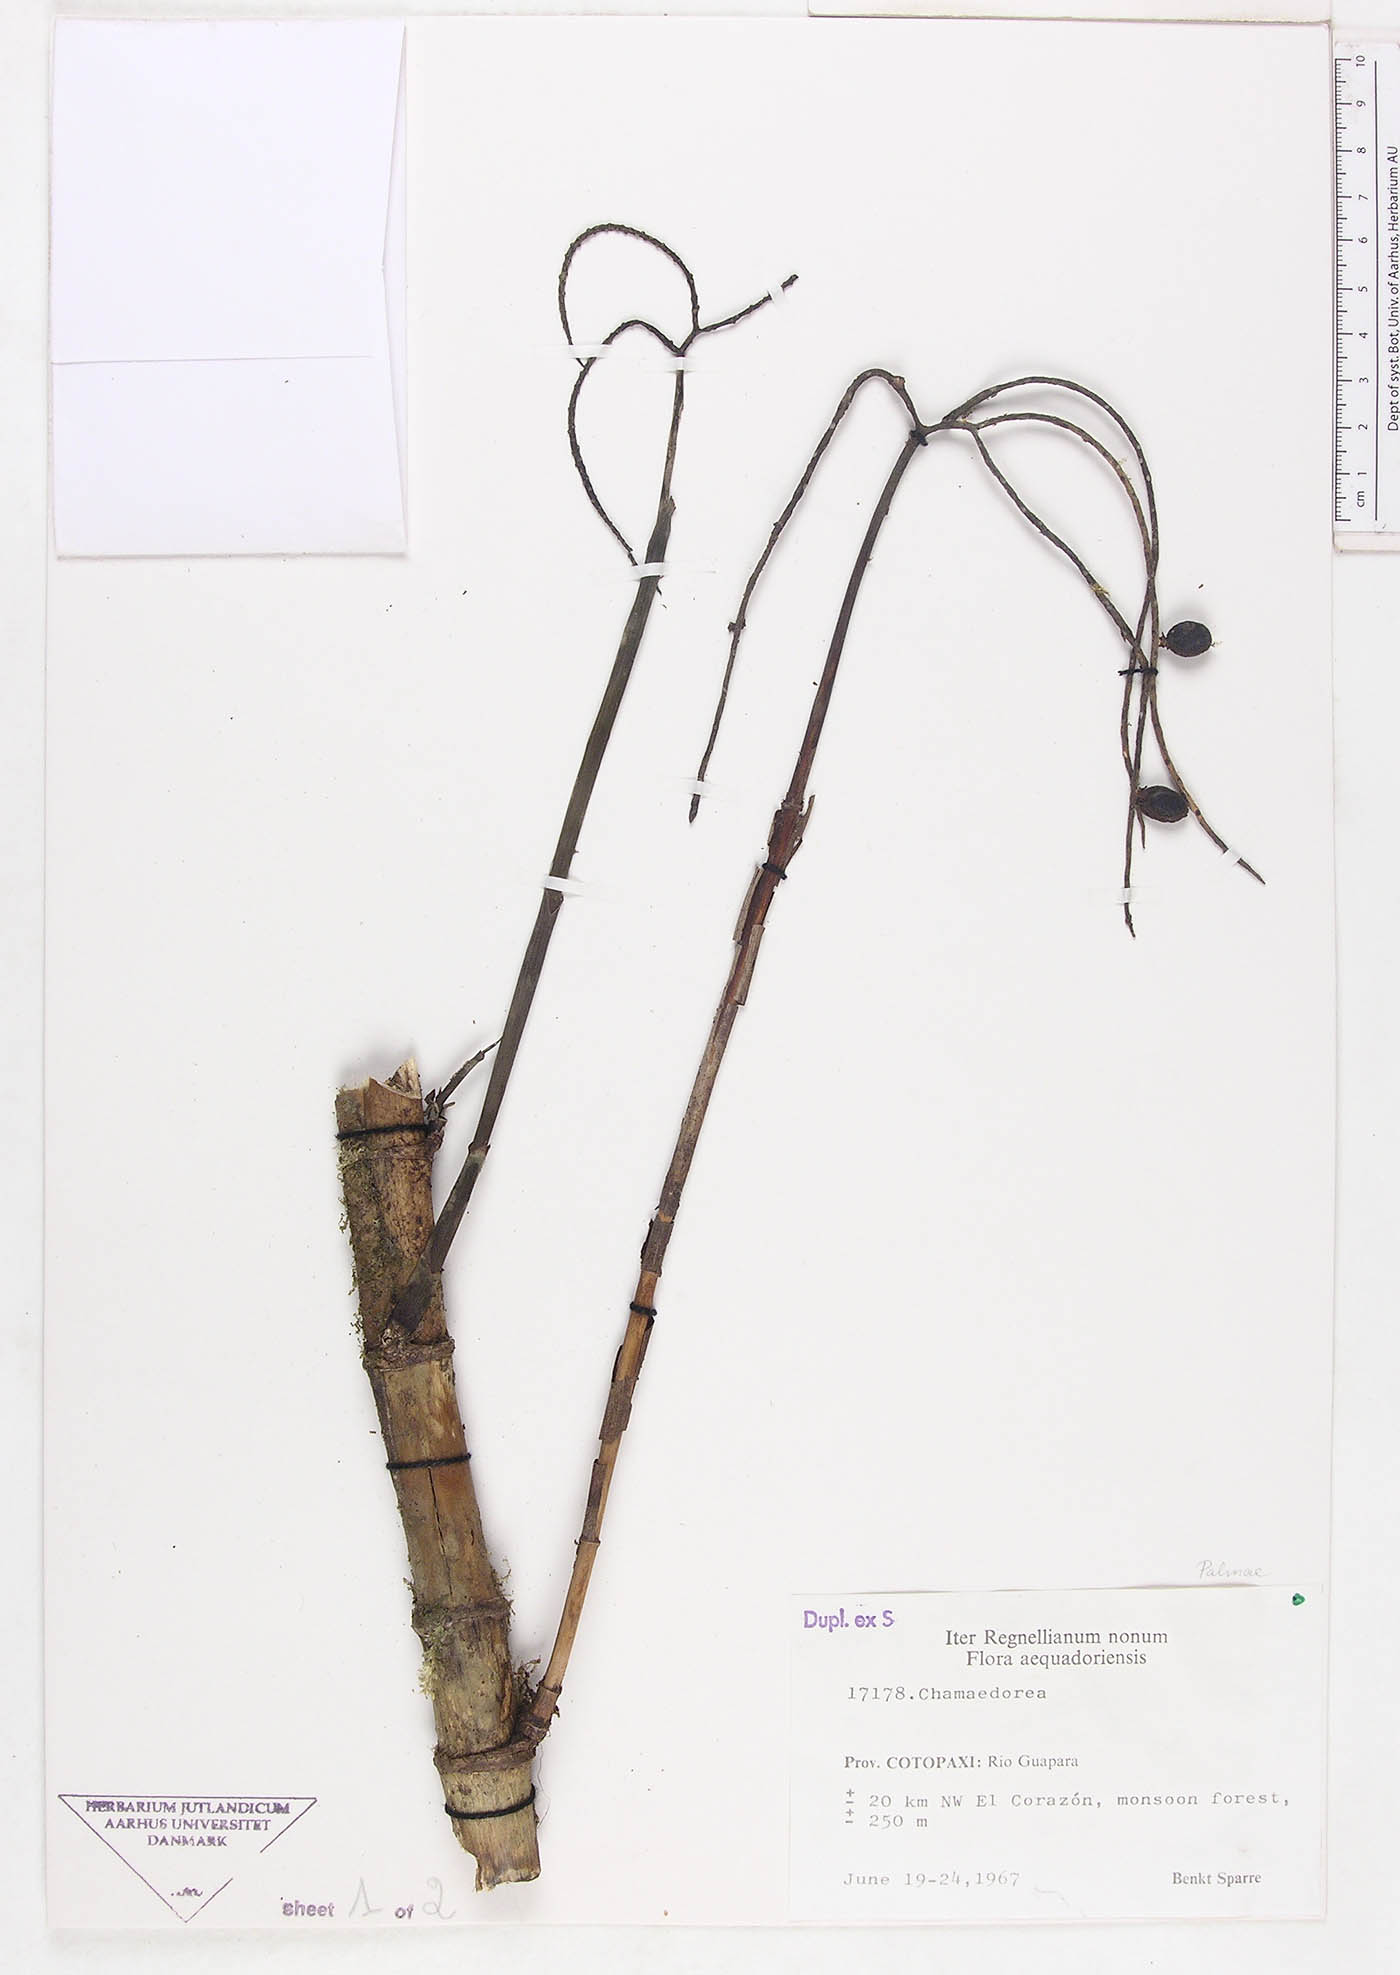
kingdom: Plantae
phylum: Tracheophyta
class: Liliopsida
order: Arecales
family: Arecaceae
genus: Chamaedorea
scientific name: Chamaedorea
